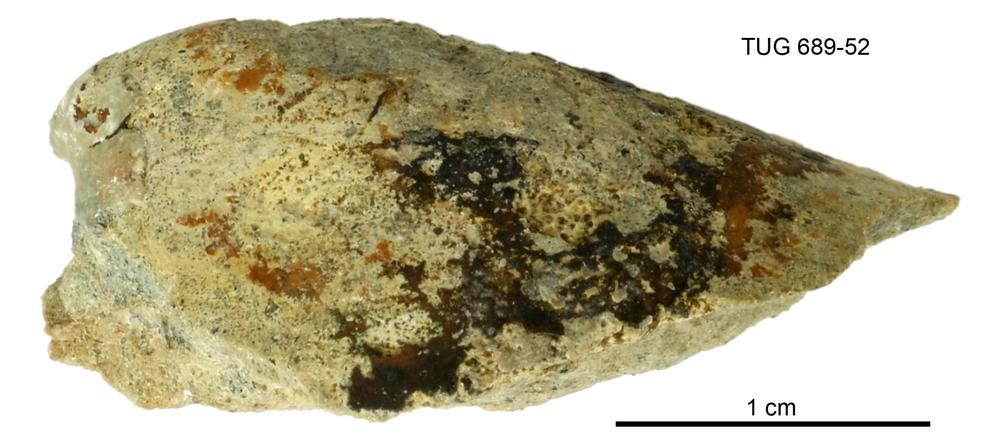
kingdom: Animalia
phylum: Mollusca
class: Gastropoda
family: Archinacellidae
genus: Archinacella
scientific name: Archinacella Metoptoma melissa
